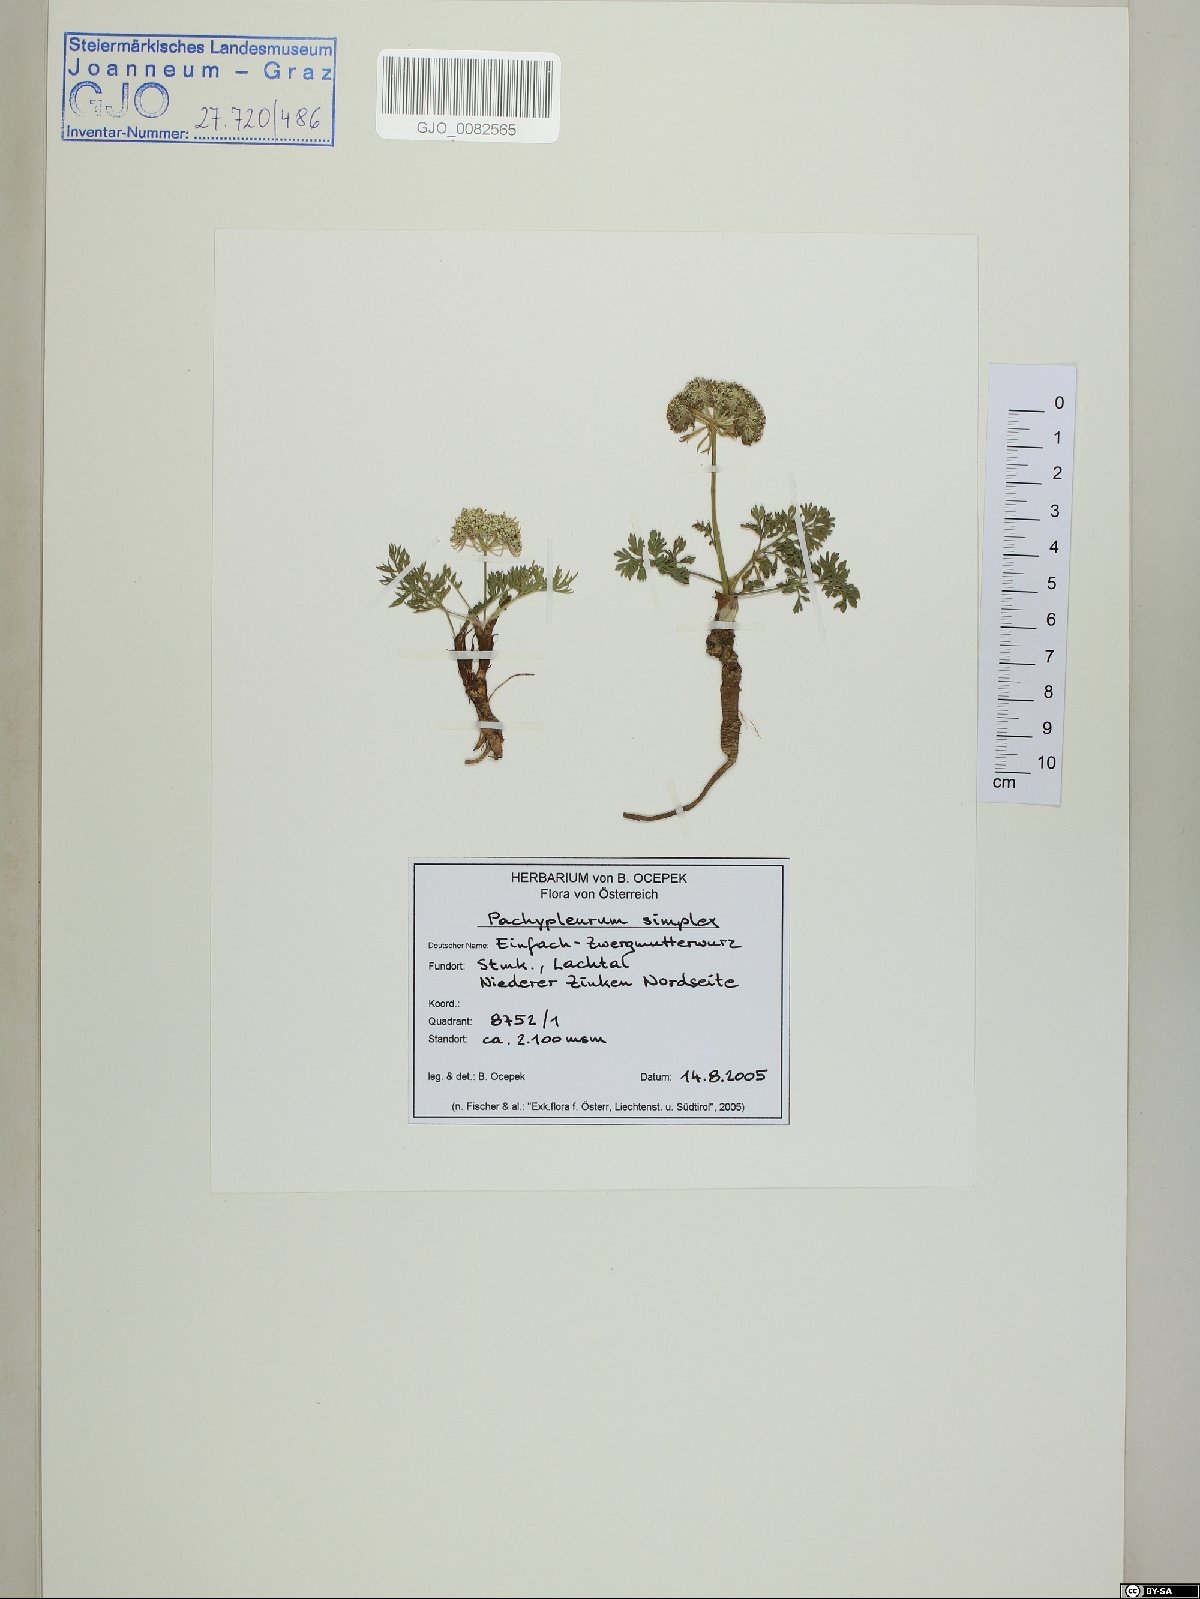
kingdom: Plantae
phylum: Tracheophyta
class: Magnoliopsida
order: Apiales
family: Apiaceae
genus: Pachypleurum
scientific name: Pachypleurum mutellinoides
